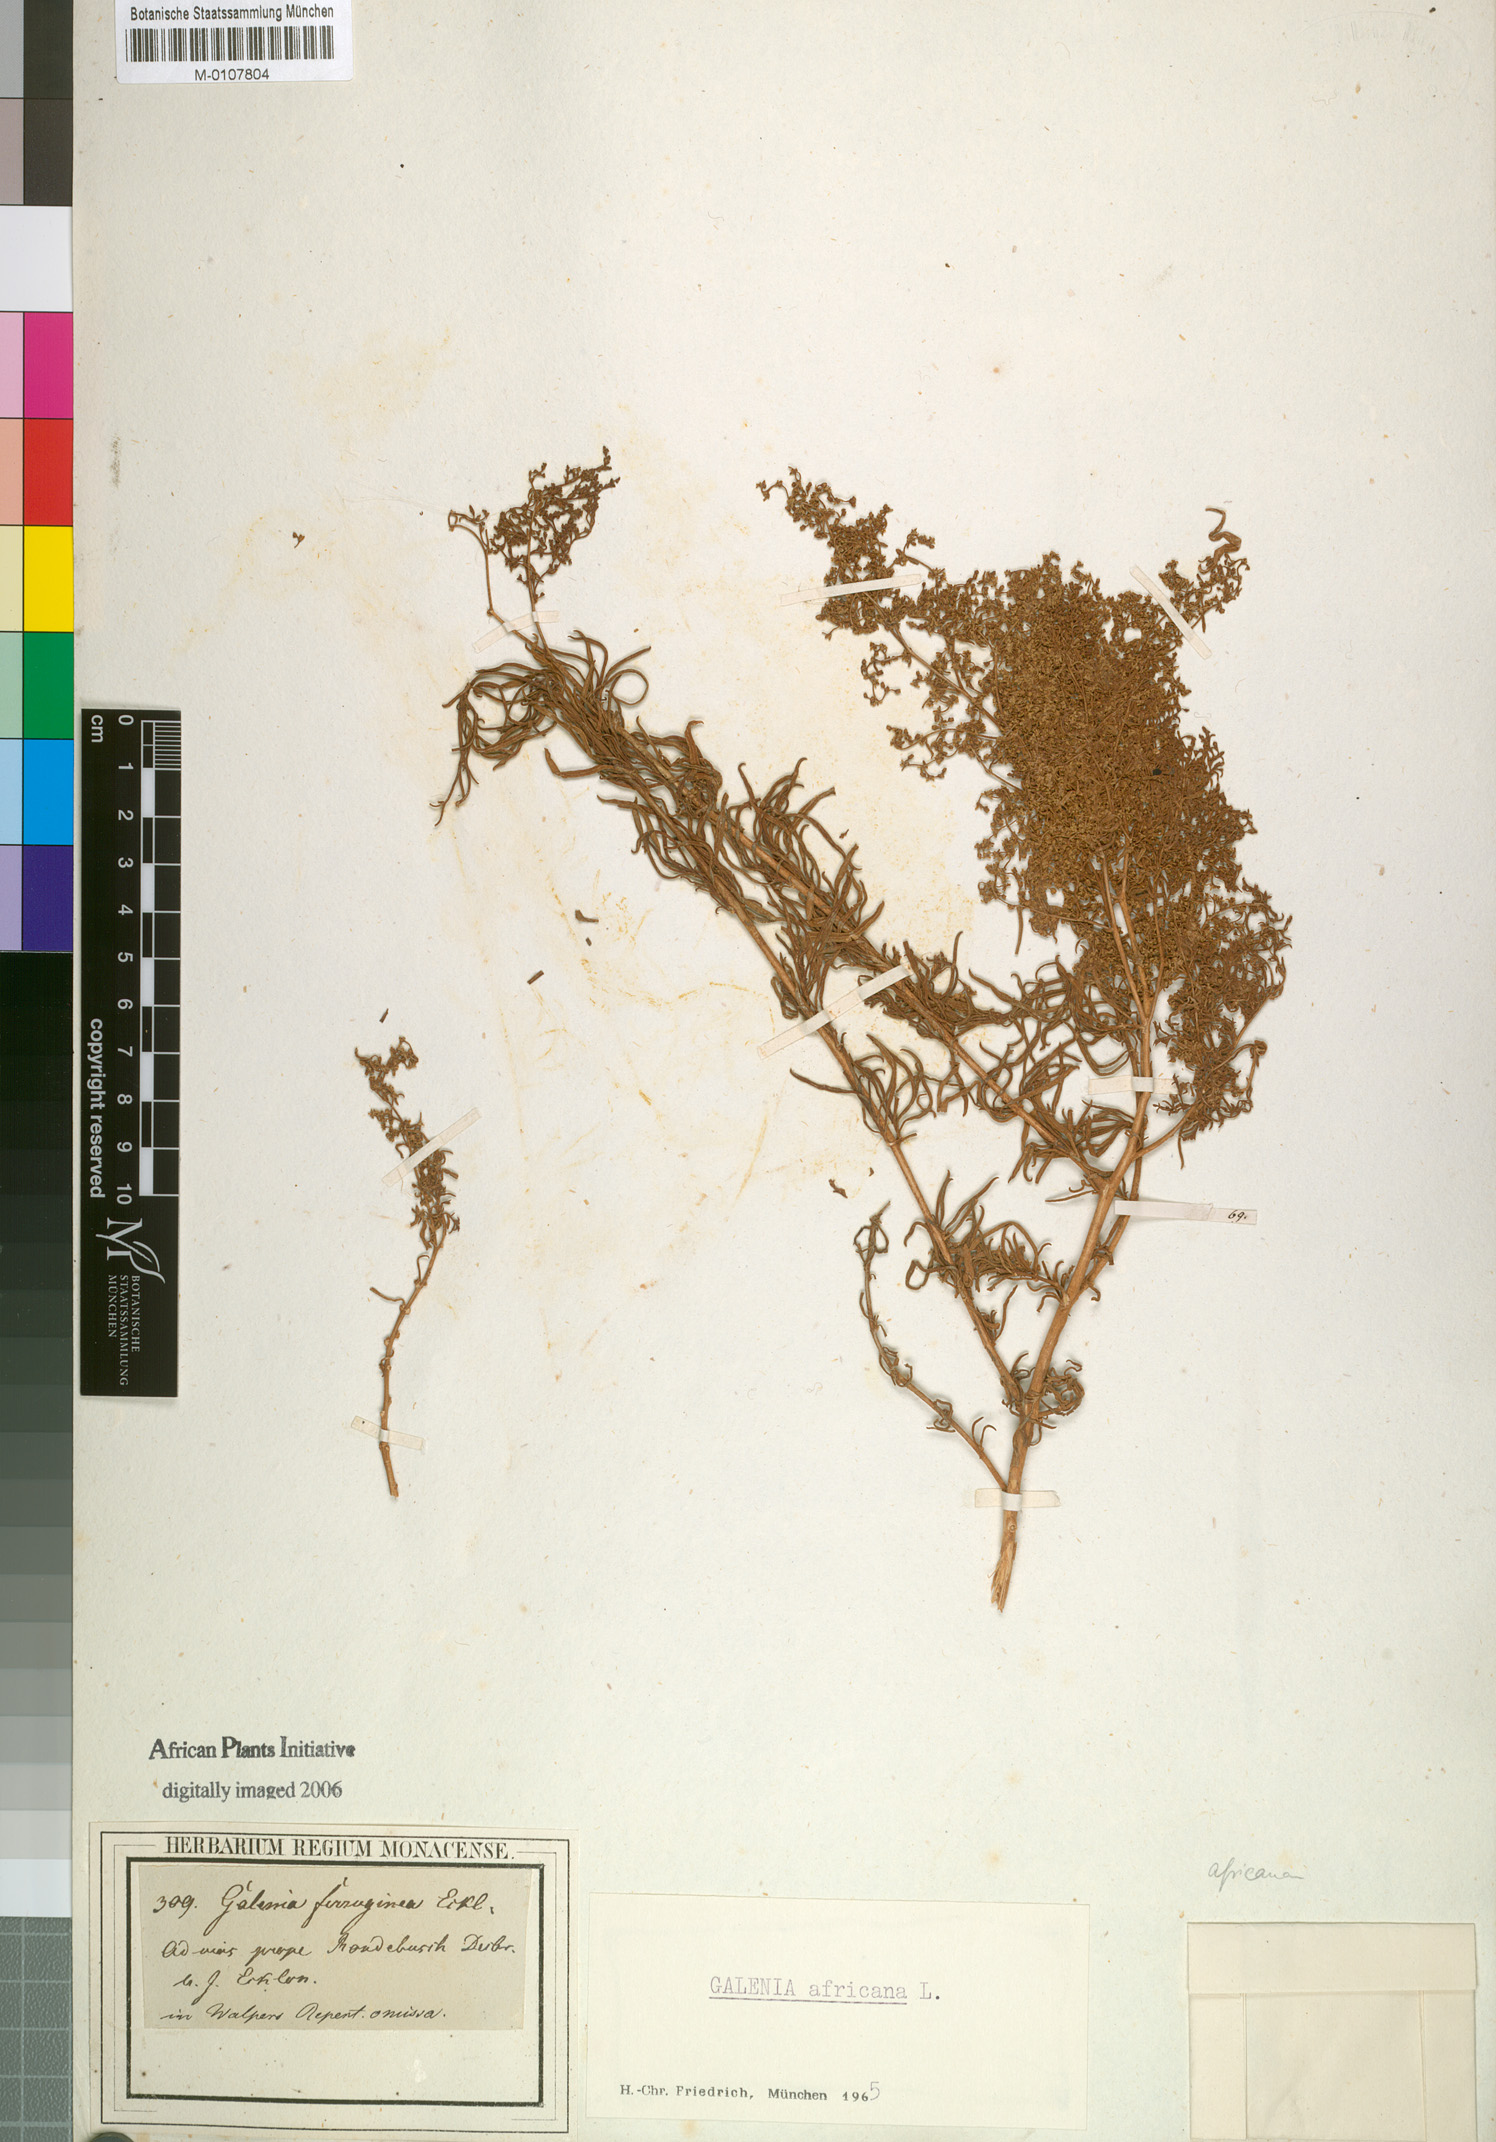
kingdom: Plantae
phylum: Tracheophyta
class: Magnoliopsida
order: Caryophyllales
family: Aizoaceae
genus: Aizoon
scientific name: Aizoon africanum
